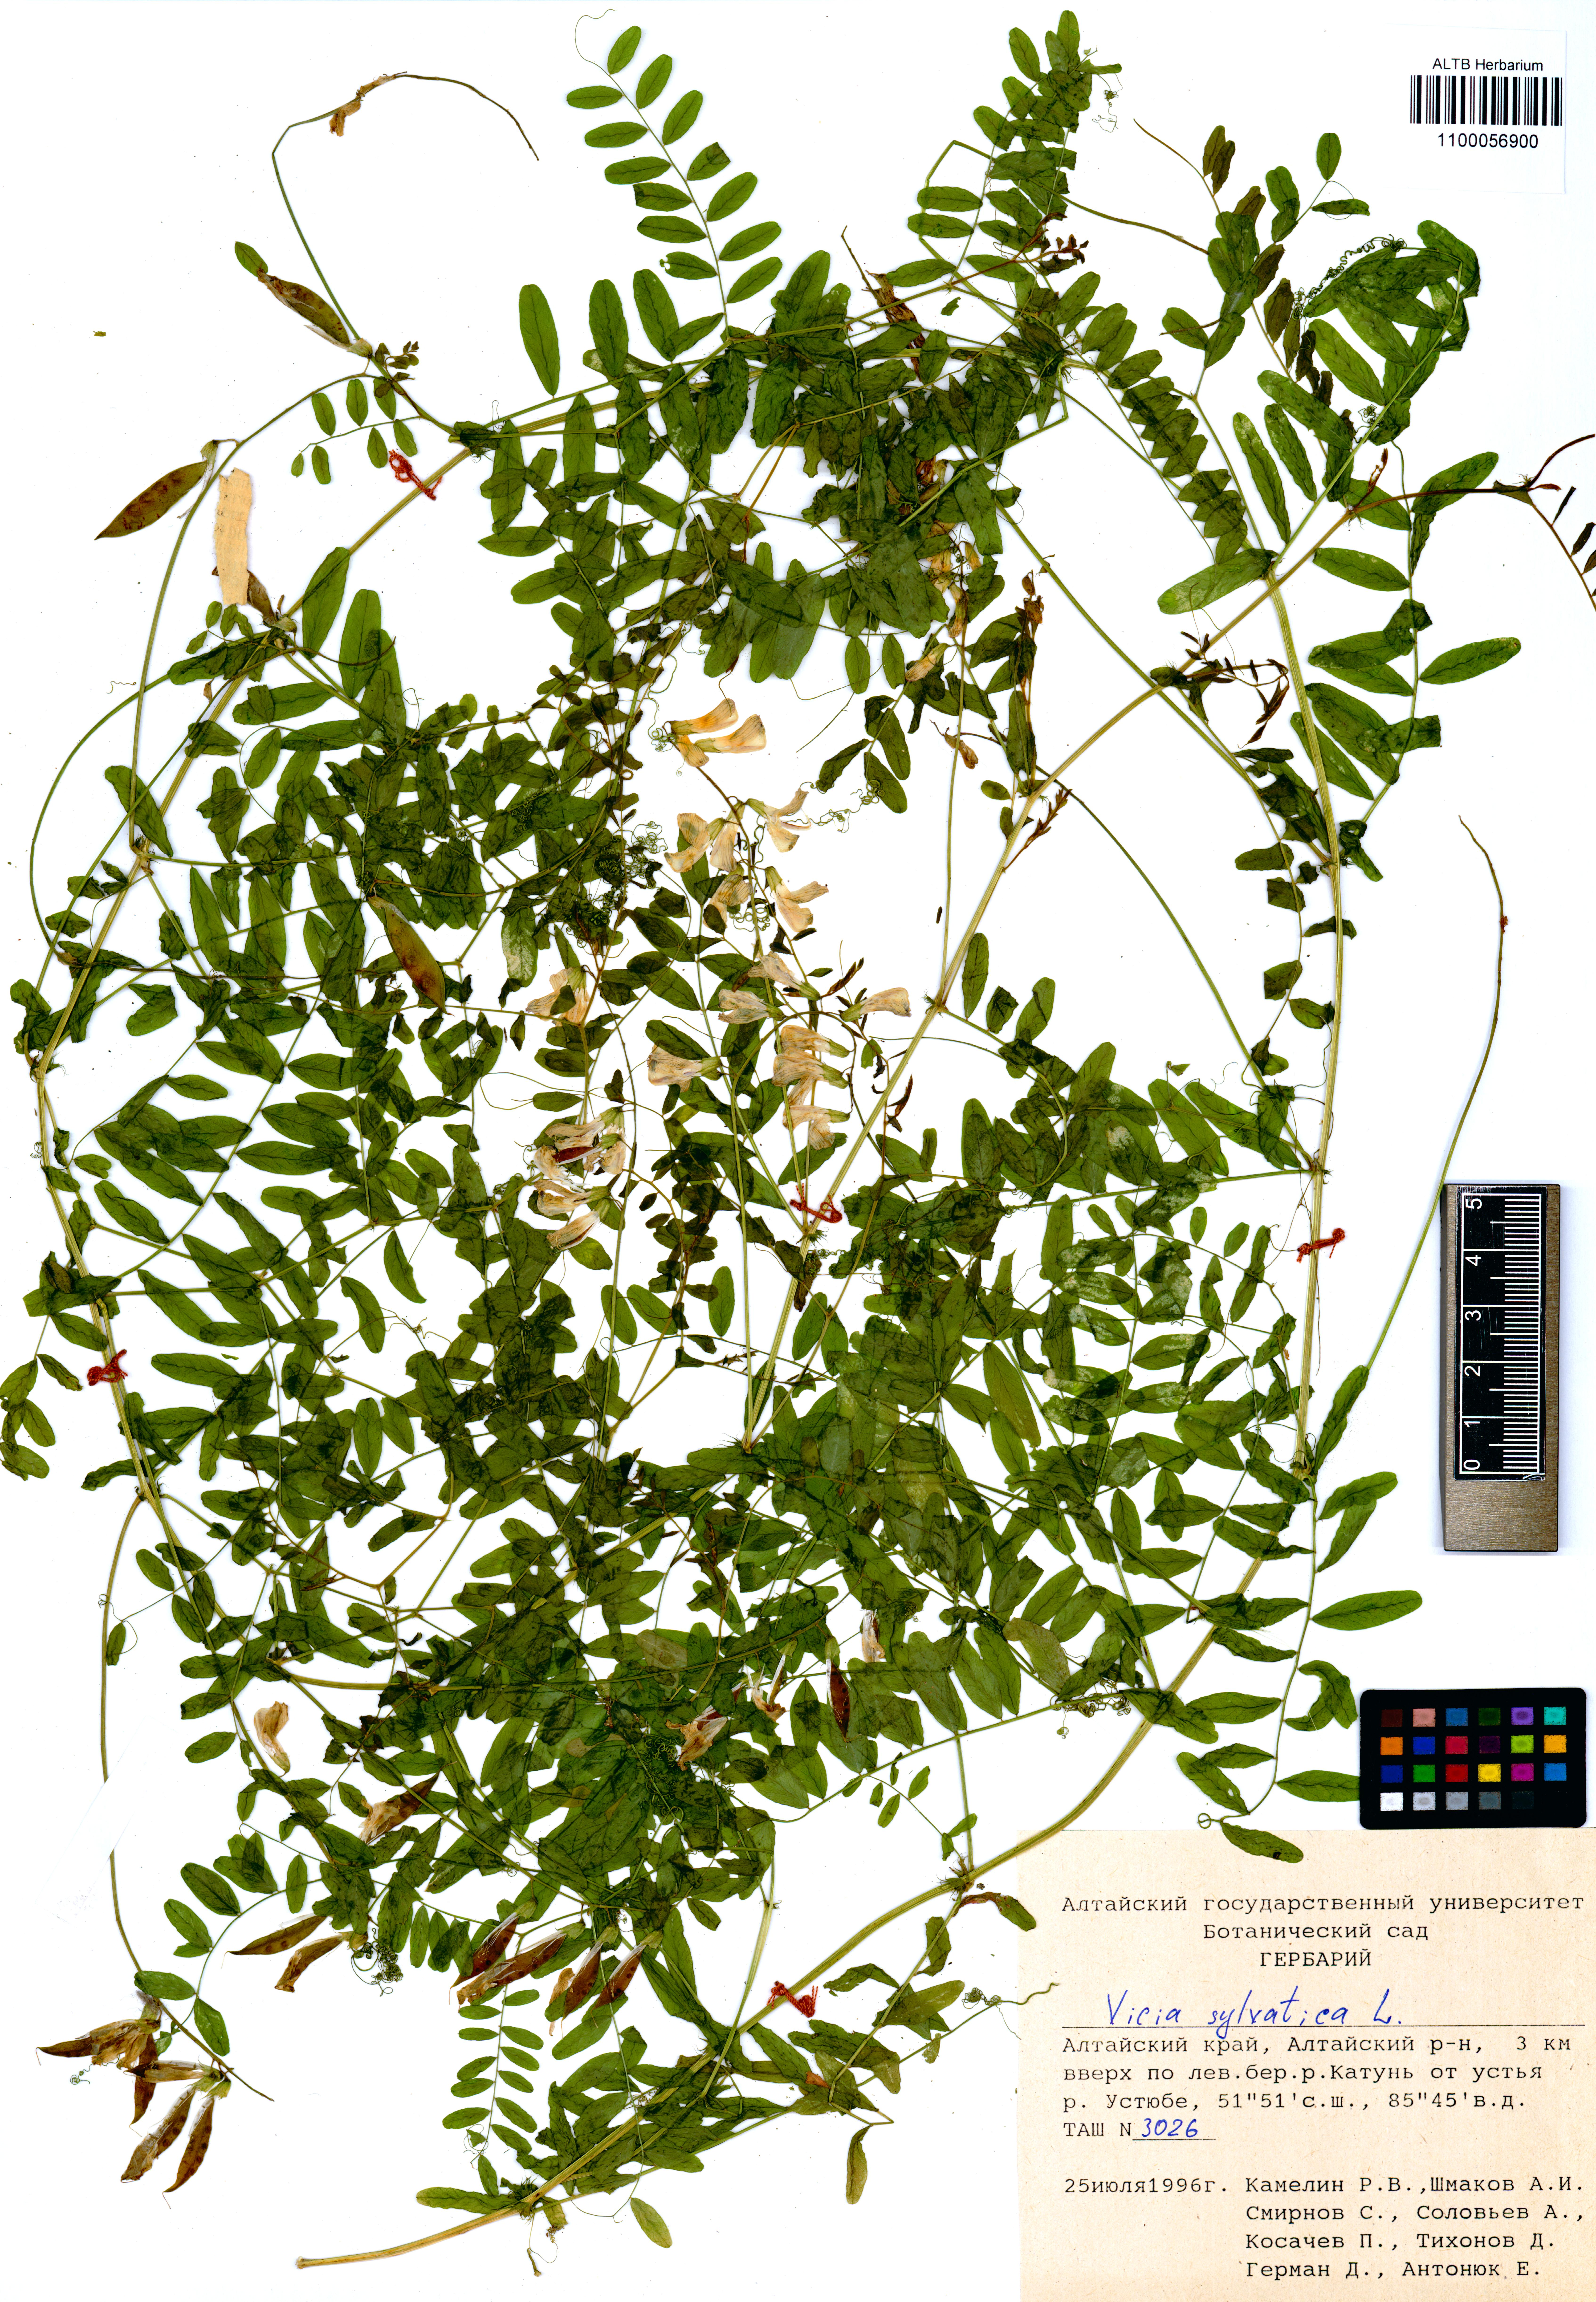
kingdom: Plantae
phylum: Tracheophyta
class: Magnoliopsida
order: Fabales
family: Fabaceae
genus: Vicia
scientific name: Vicia sylvatica
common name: Wood vetch
